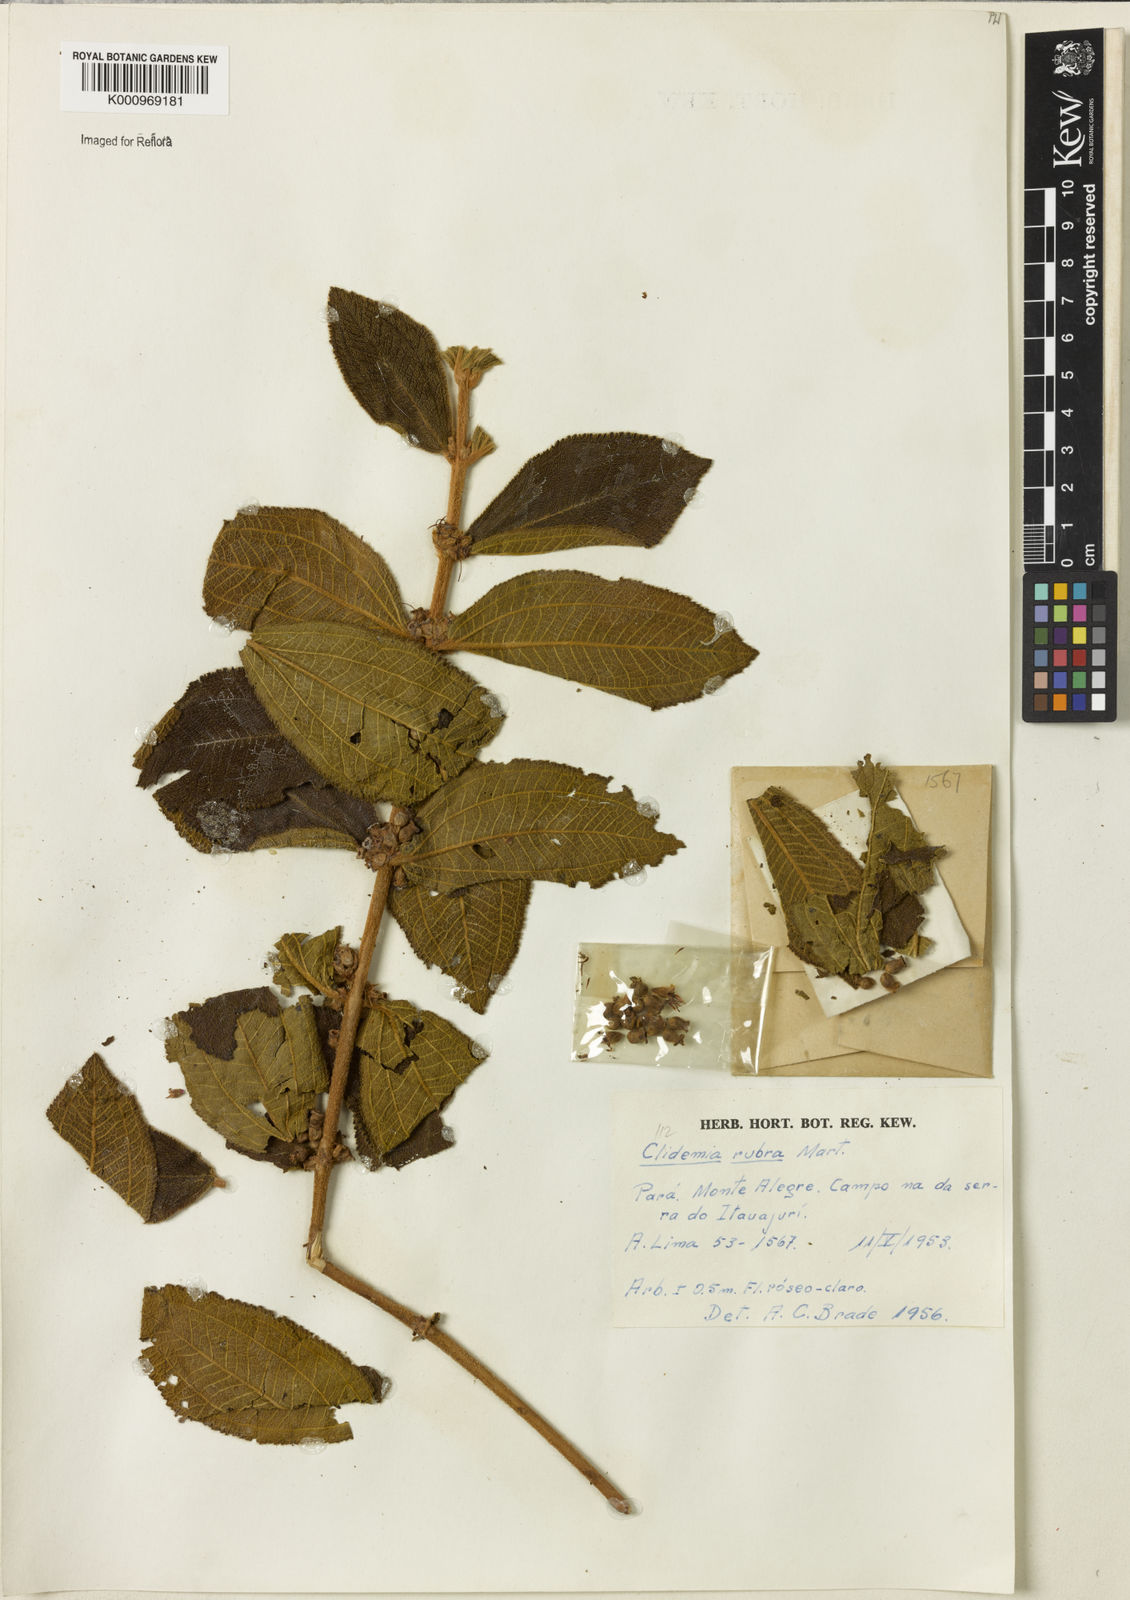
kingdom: Plantae
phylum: Tracheophyta
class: Magnoliopsida
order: Myrtales
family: Melastomataceae
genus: Miconia
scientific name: Miconia rubra
